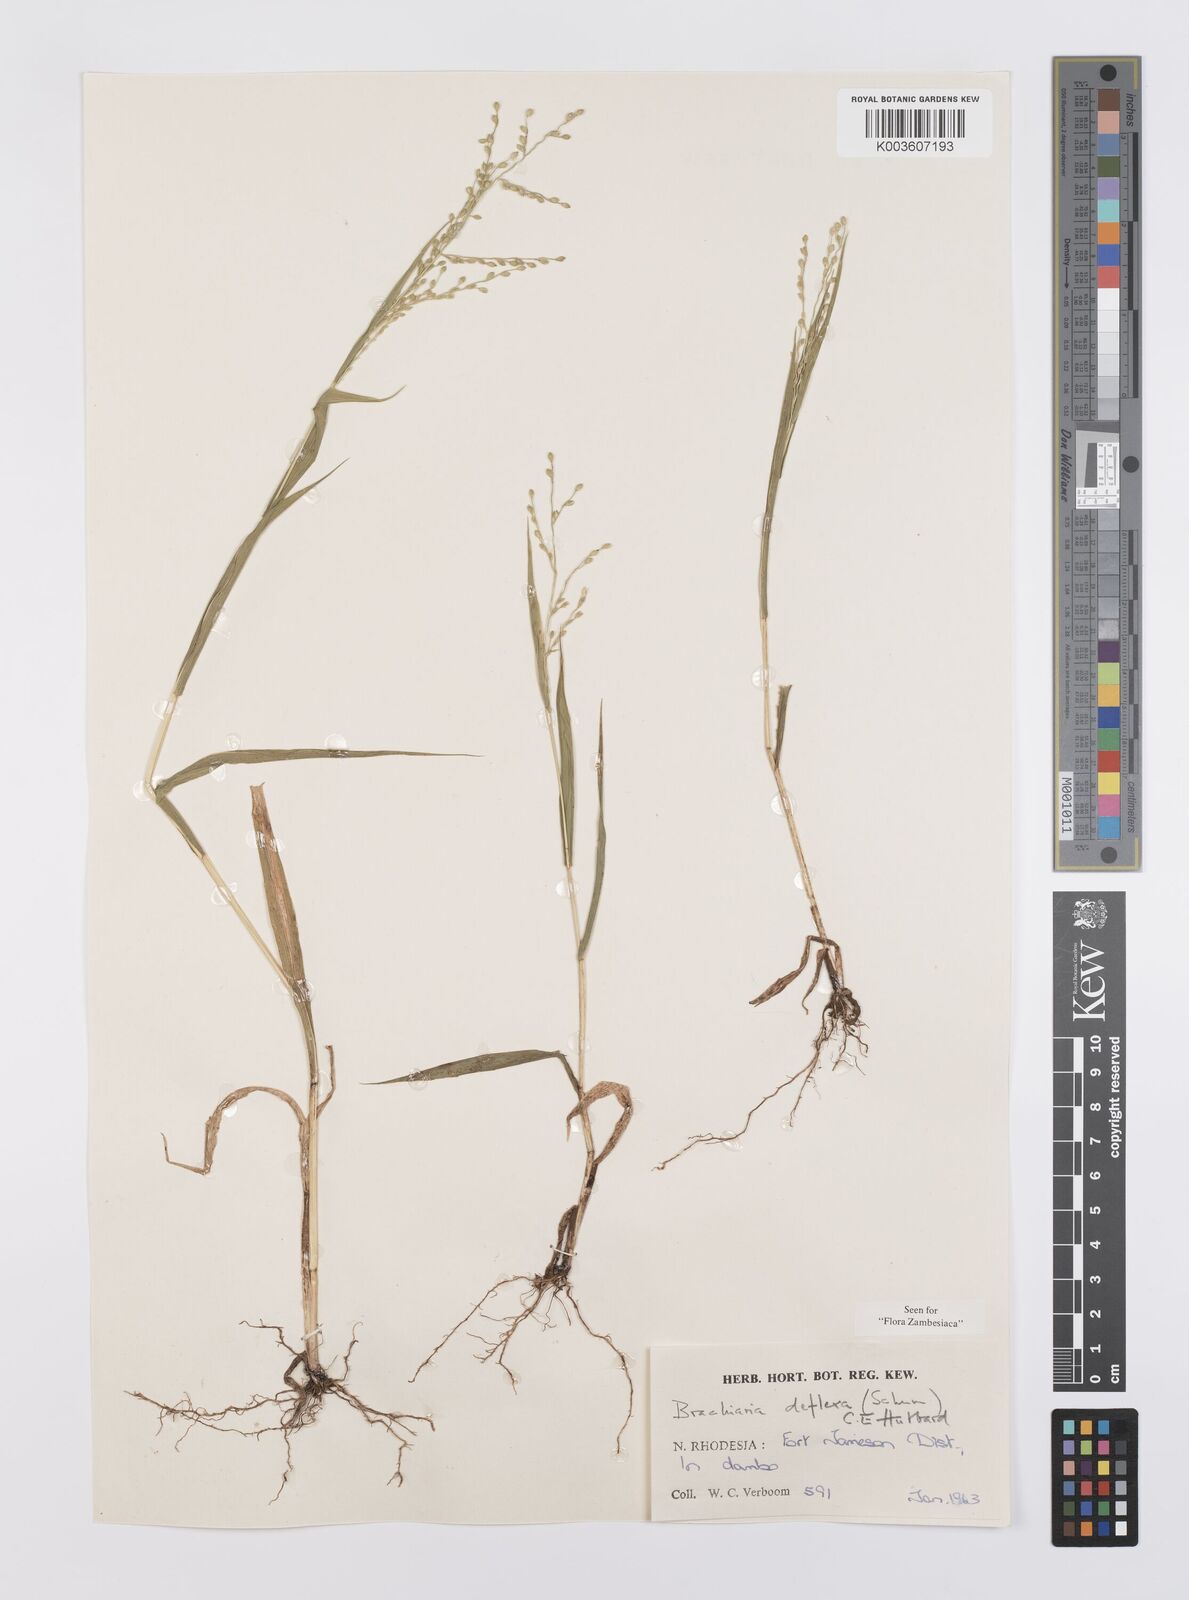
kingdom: Plantae
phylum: Tracheophyta
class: Liliopsida
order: Poales
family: Poaceae
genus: Urochloa
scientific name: Urochloa deflexa
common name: Guinea millet
